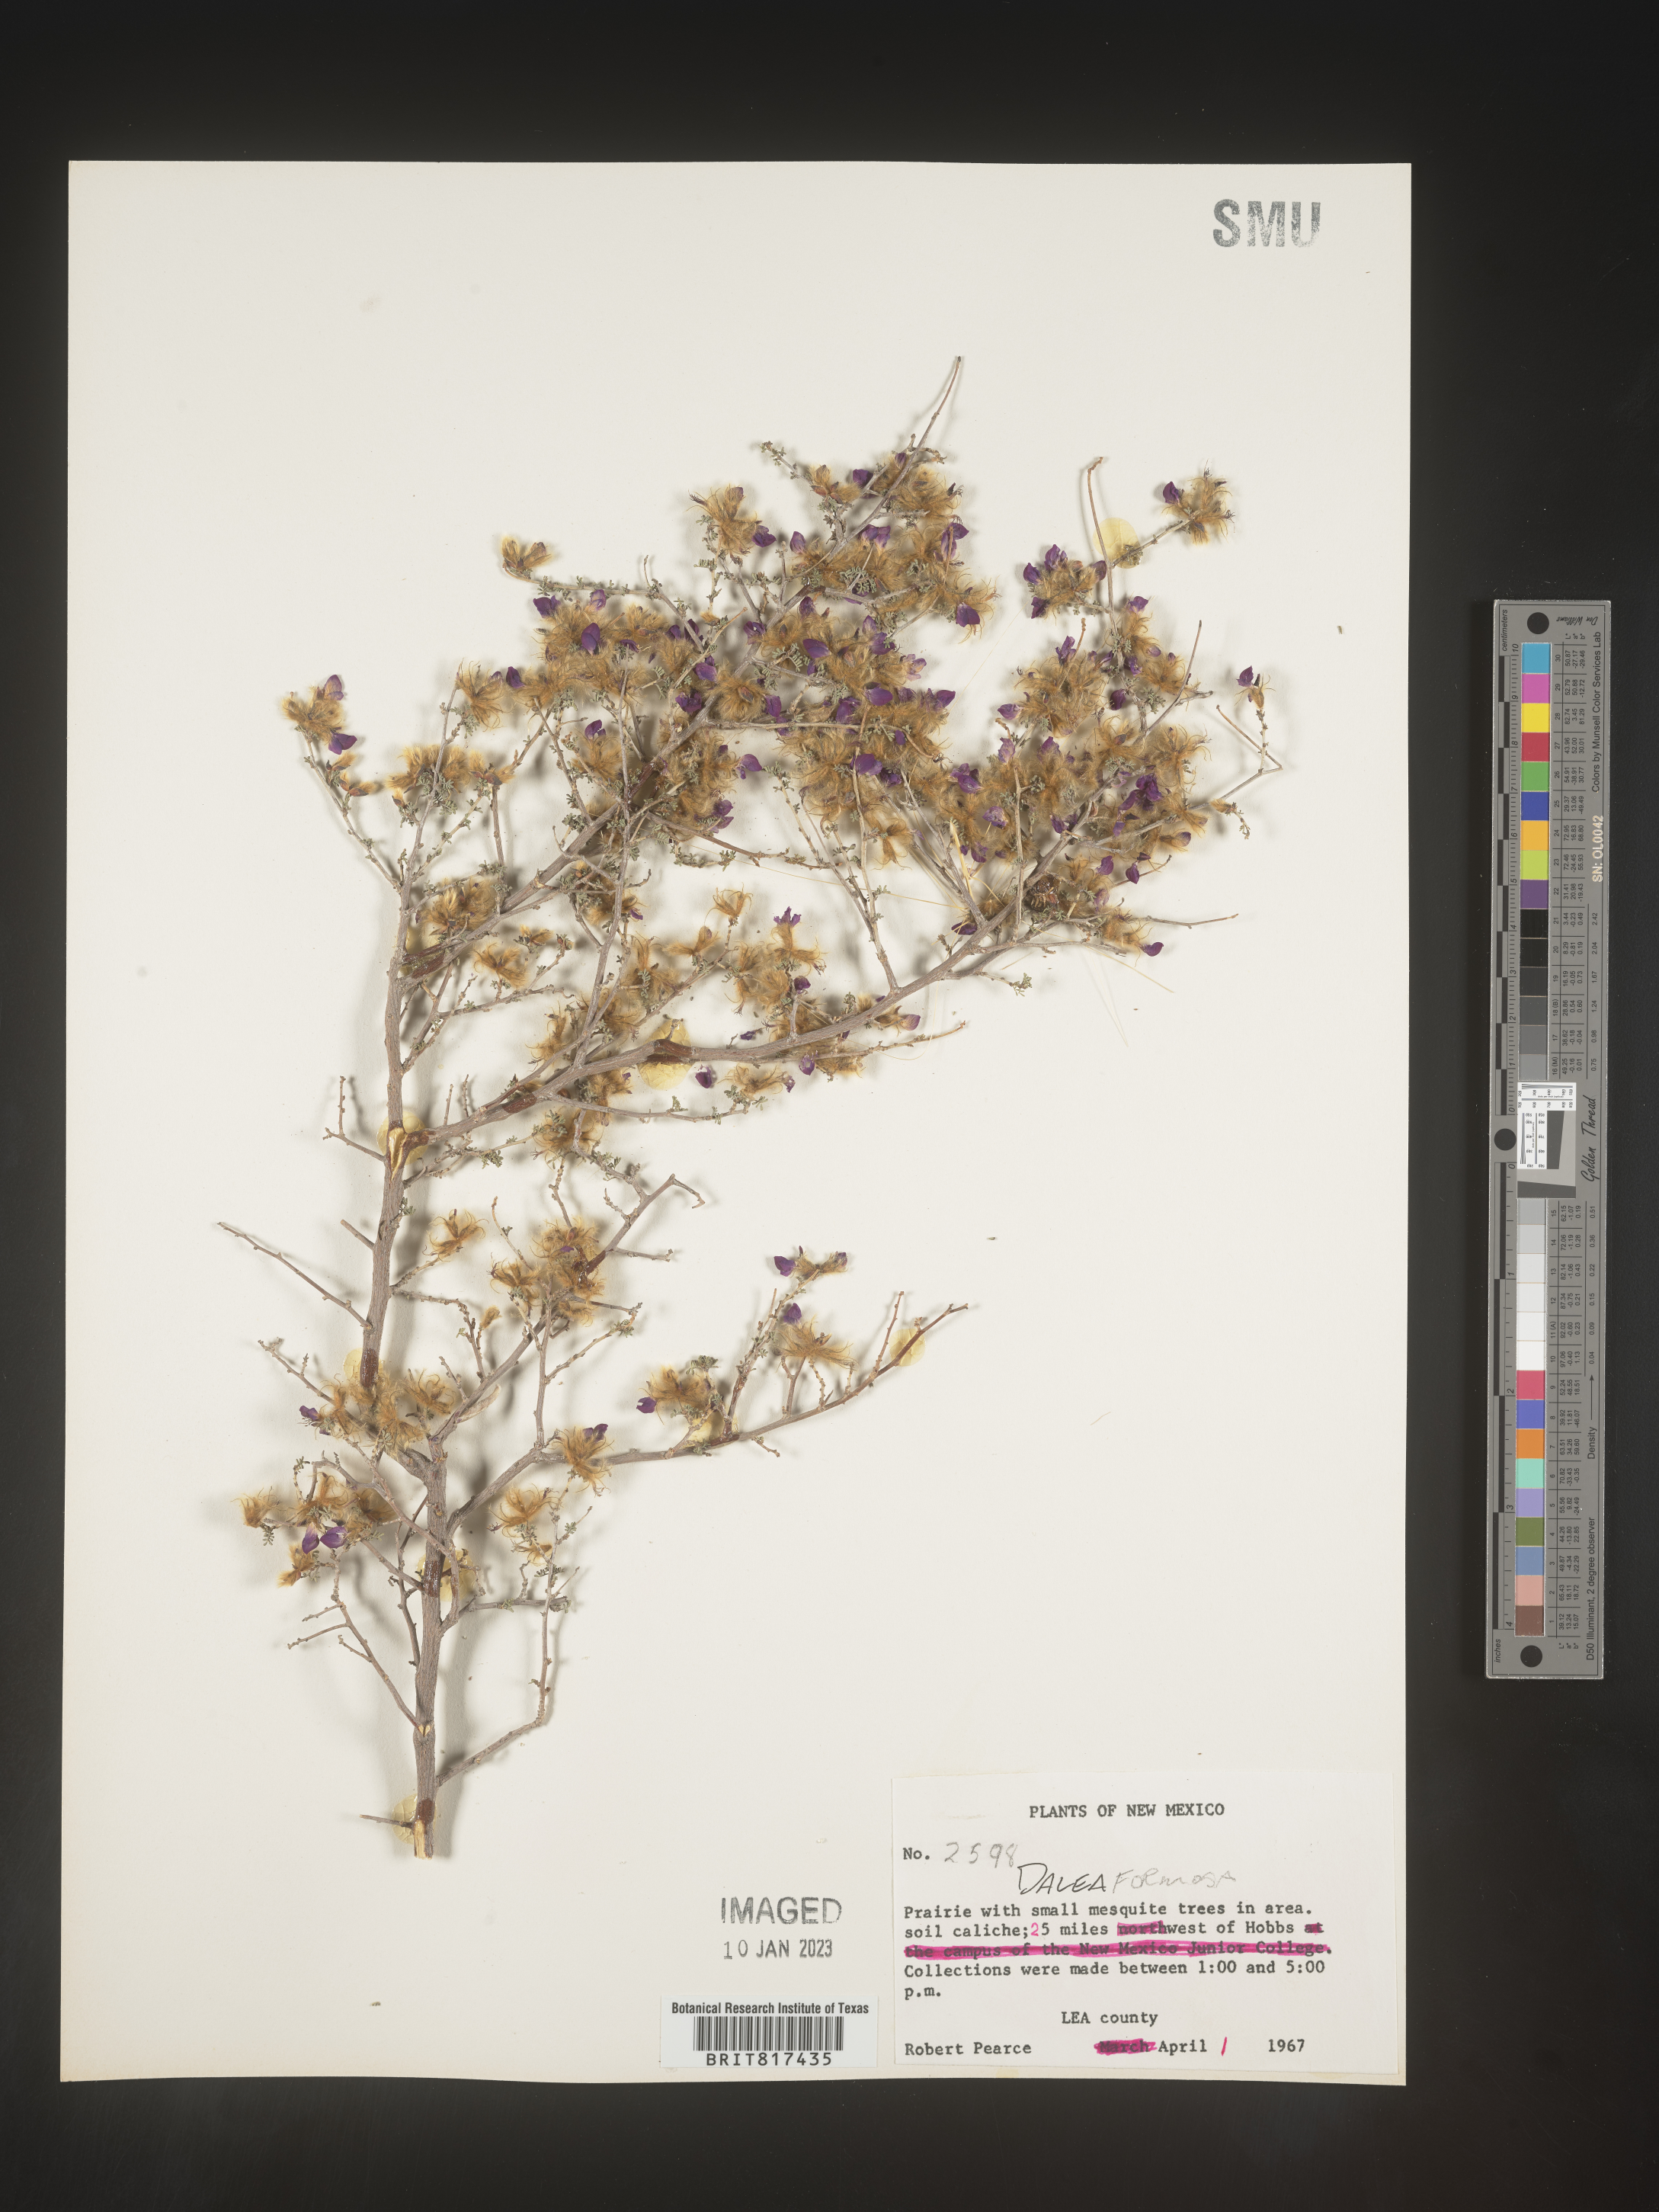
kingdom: Plantae
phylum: Tracheophyta
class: Magnoliopsida
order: Fabales
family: Fabaceae
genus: Dalea
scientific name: Dalea formosa
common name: Feather-plume dalea
